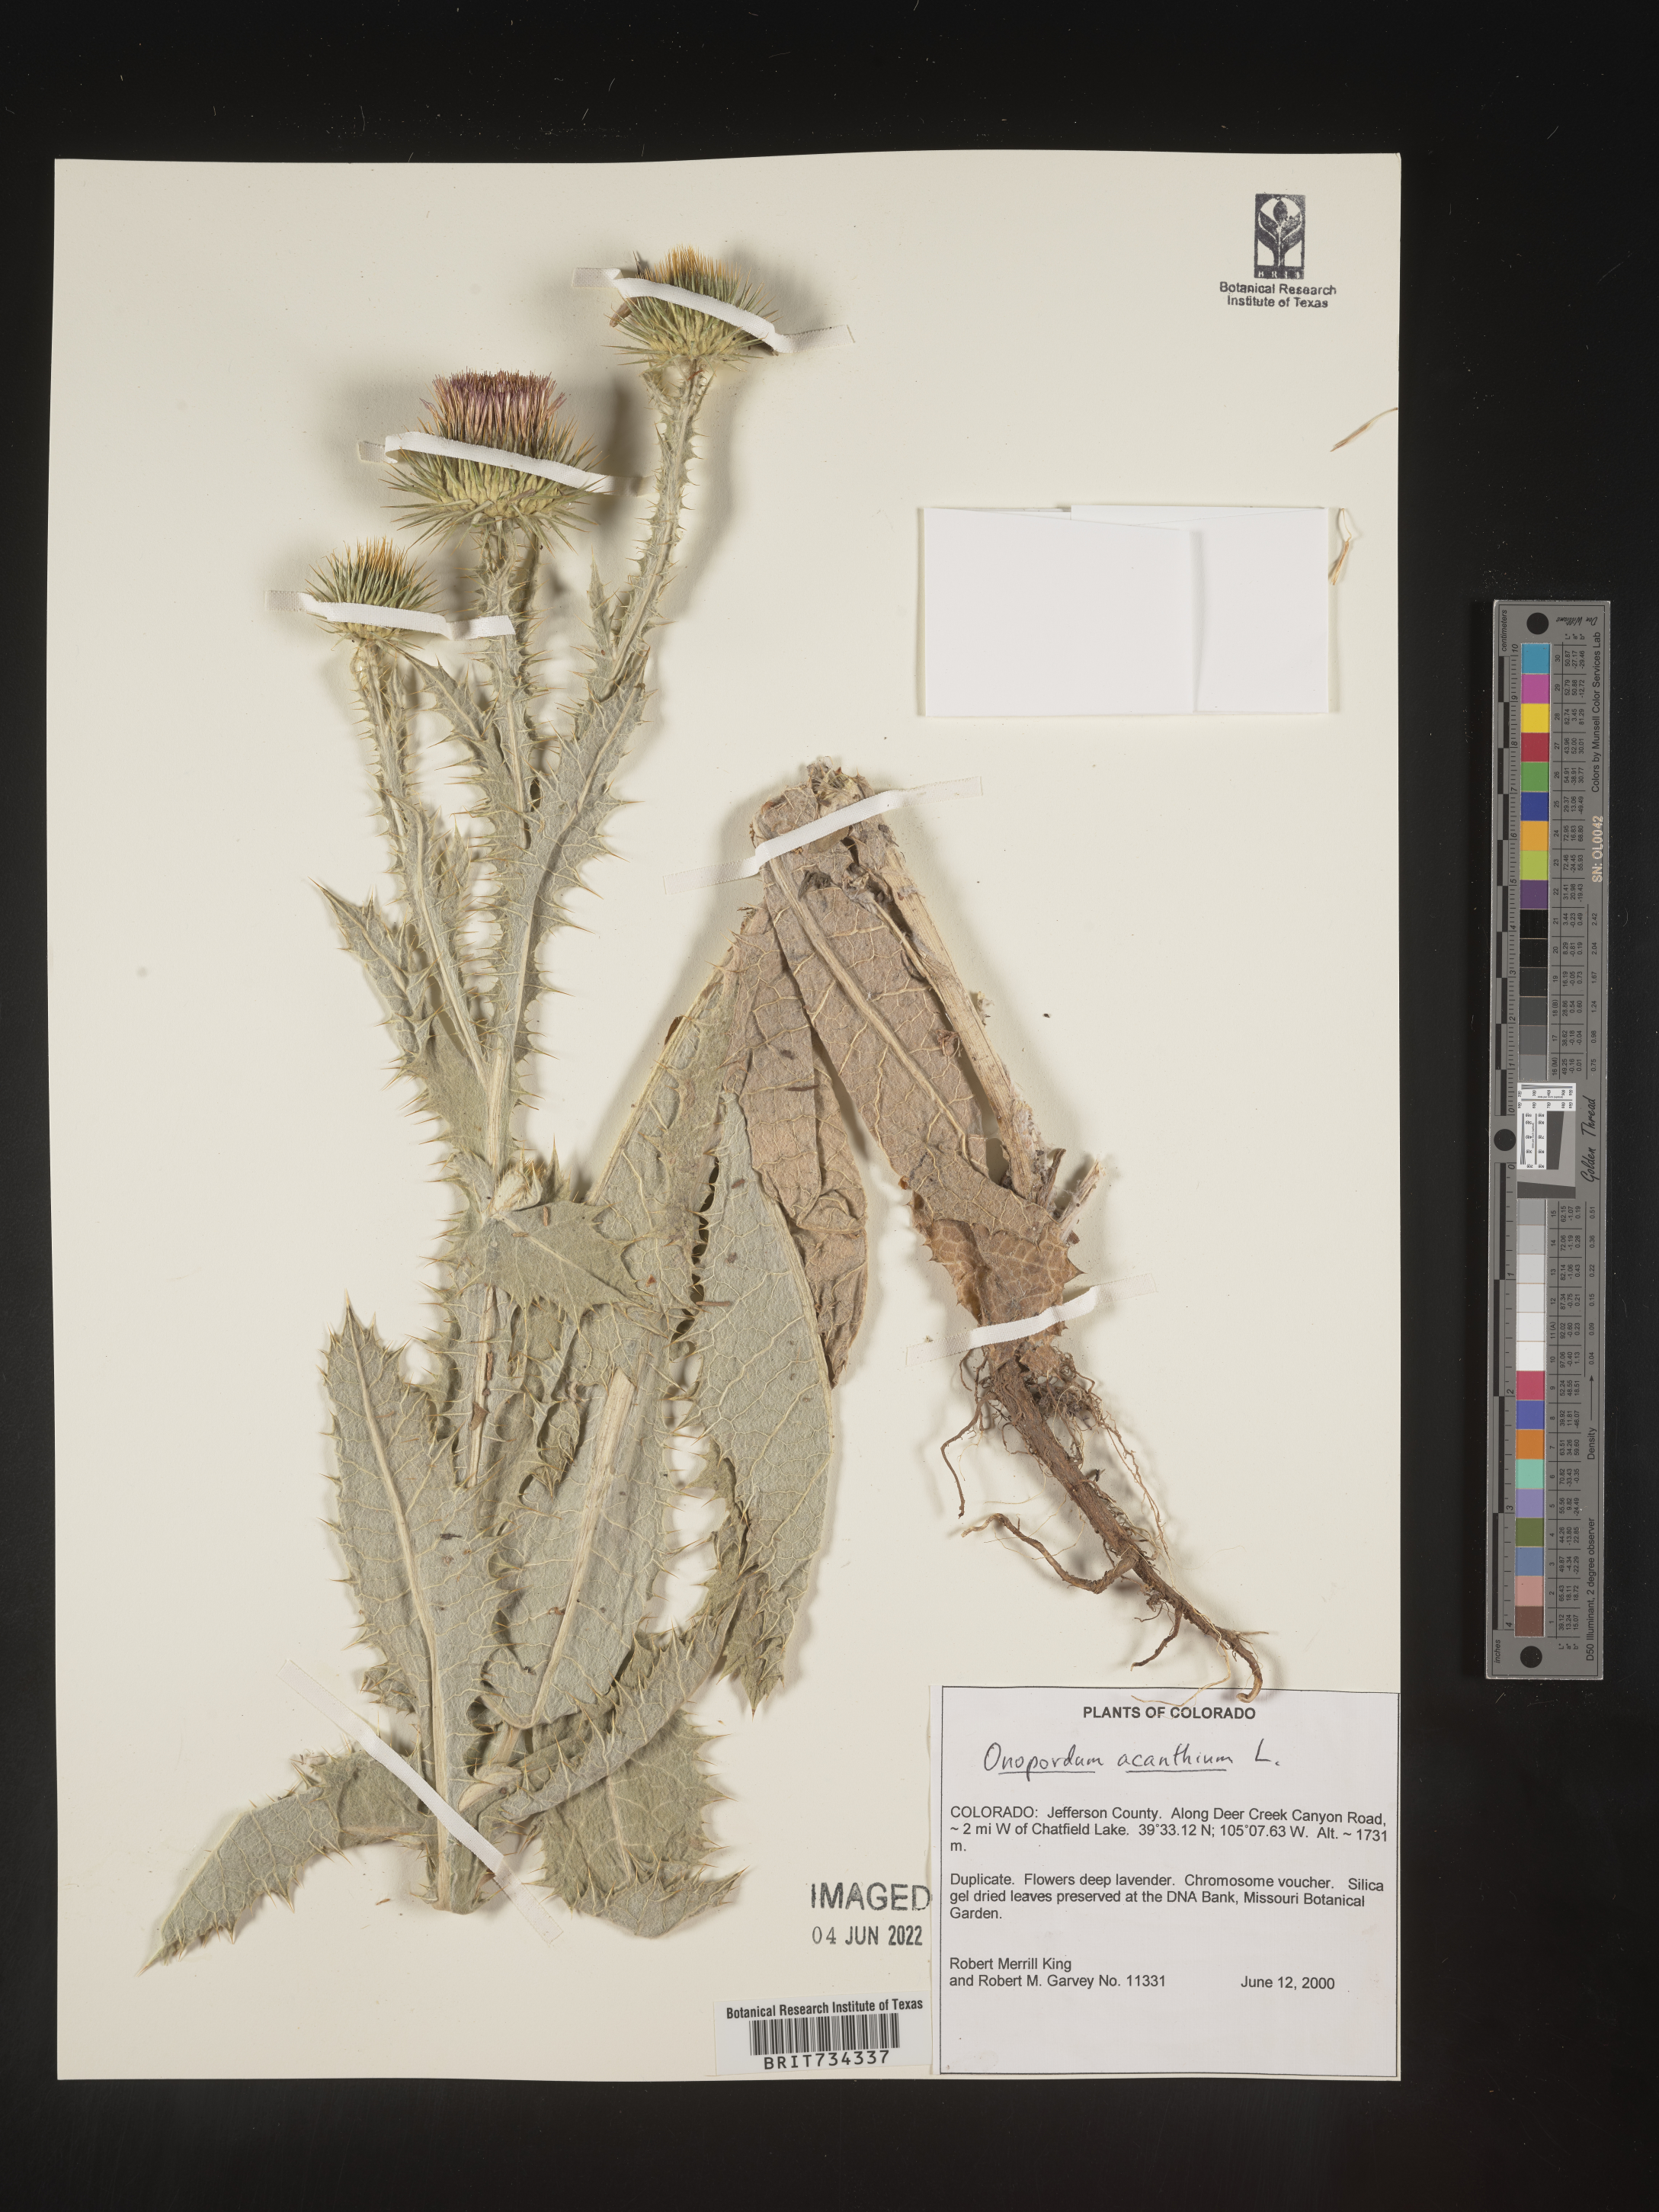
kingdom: Plantae
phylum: Tracheophyta
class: Magnoliopsida
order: Asterales
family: Asteraceae
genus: Onopordum
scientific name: Onopordum acanthium
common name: Scotch thistle
